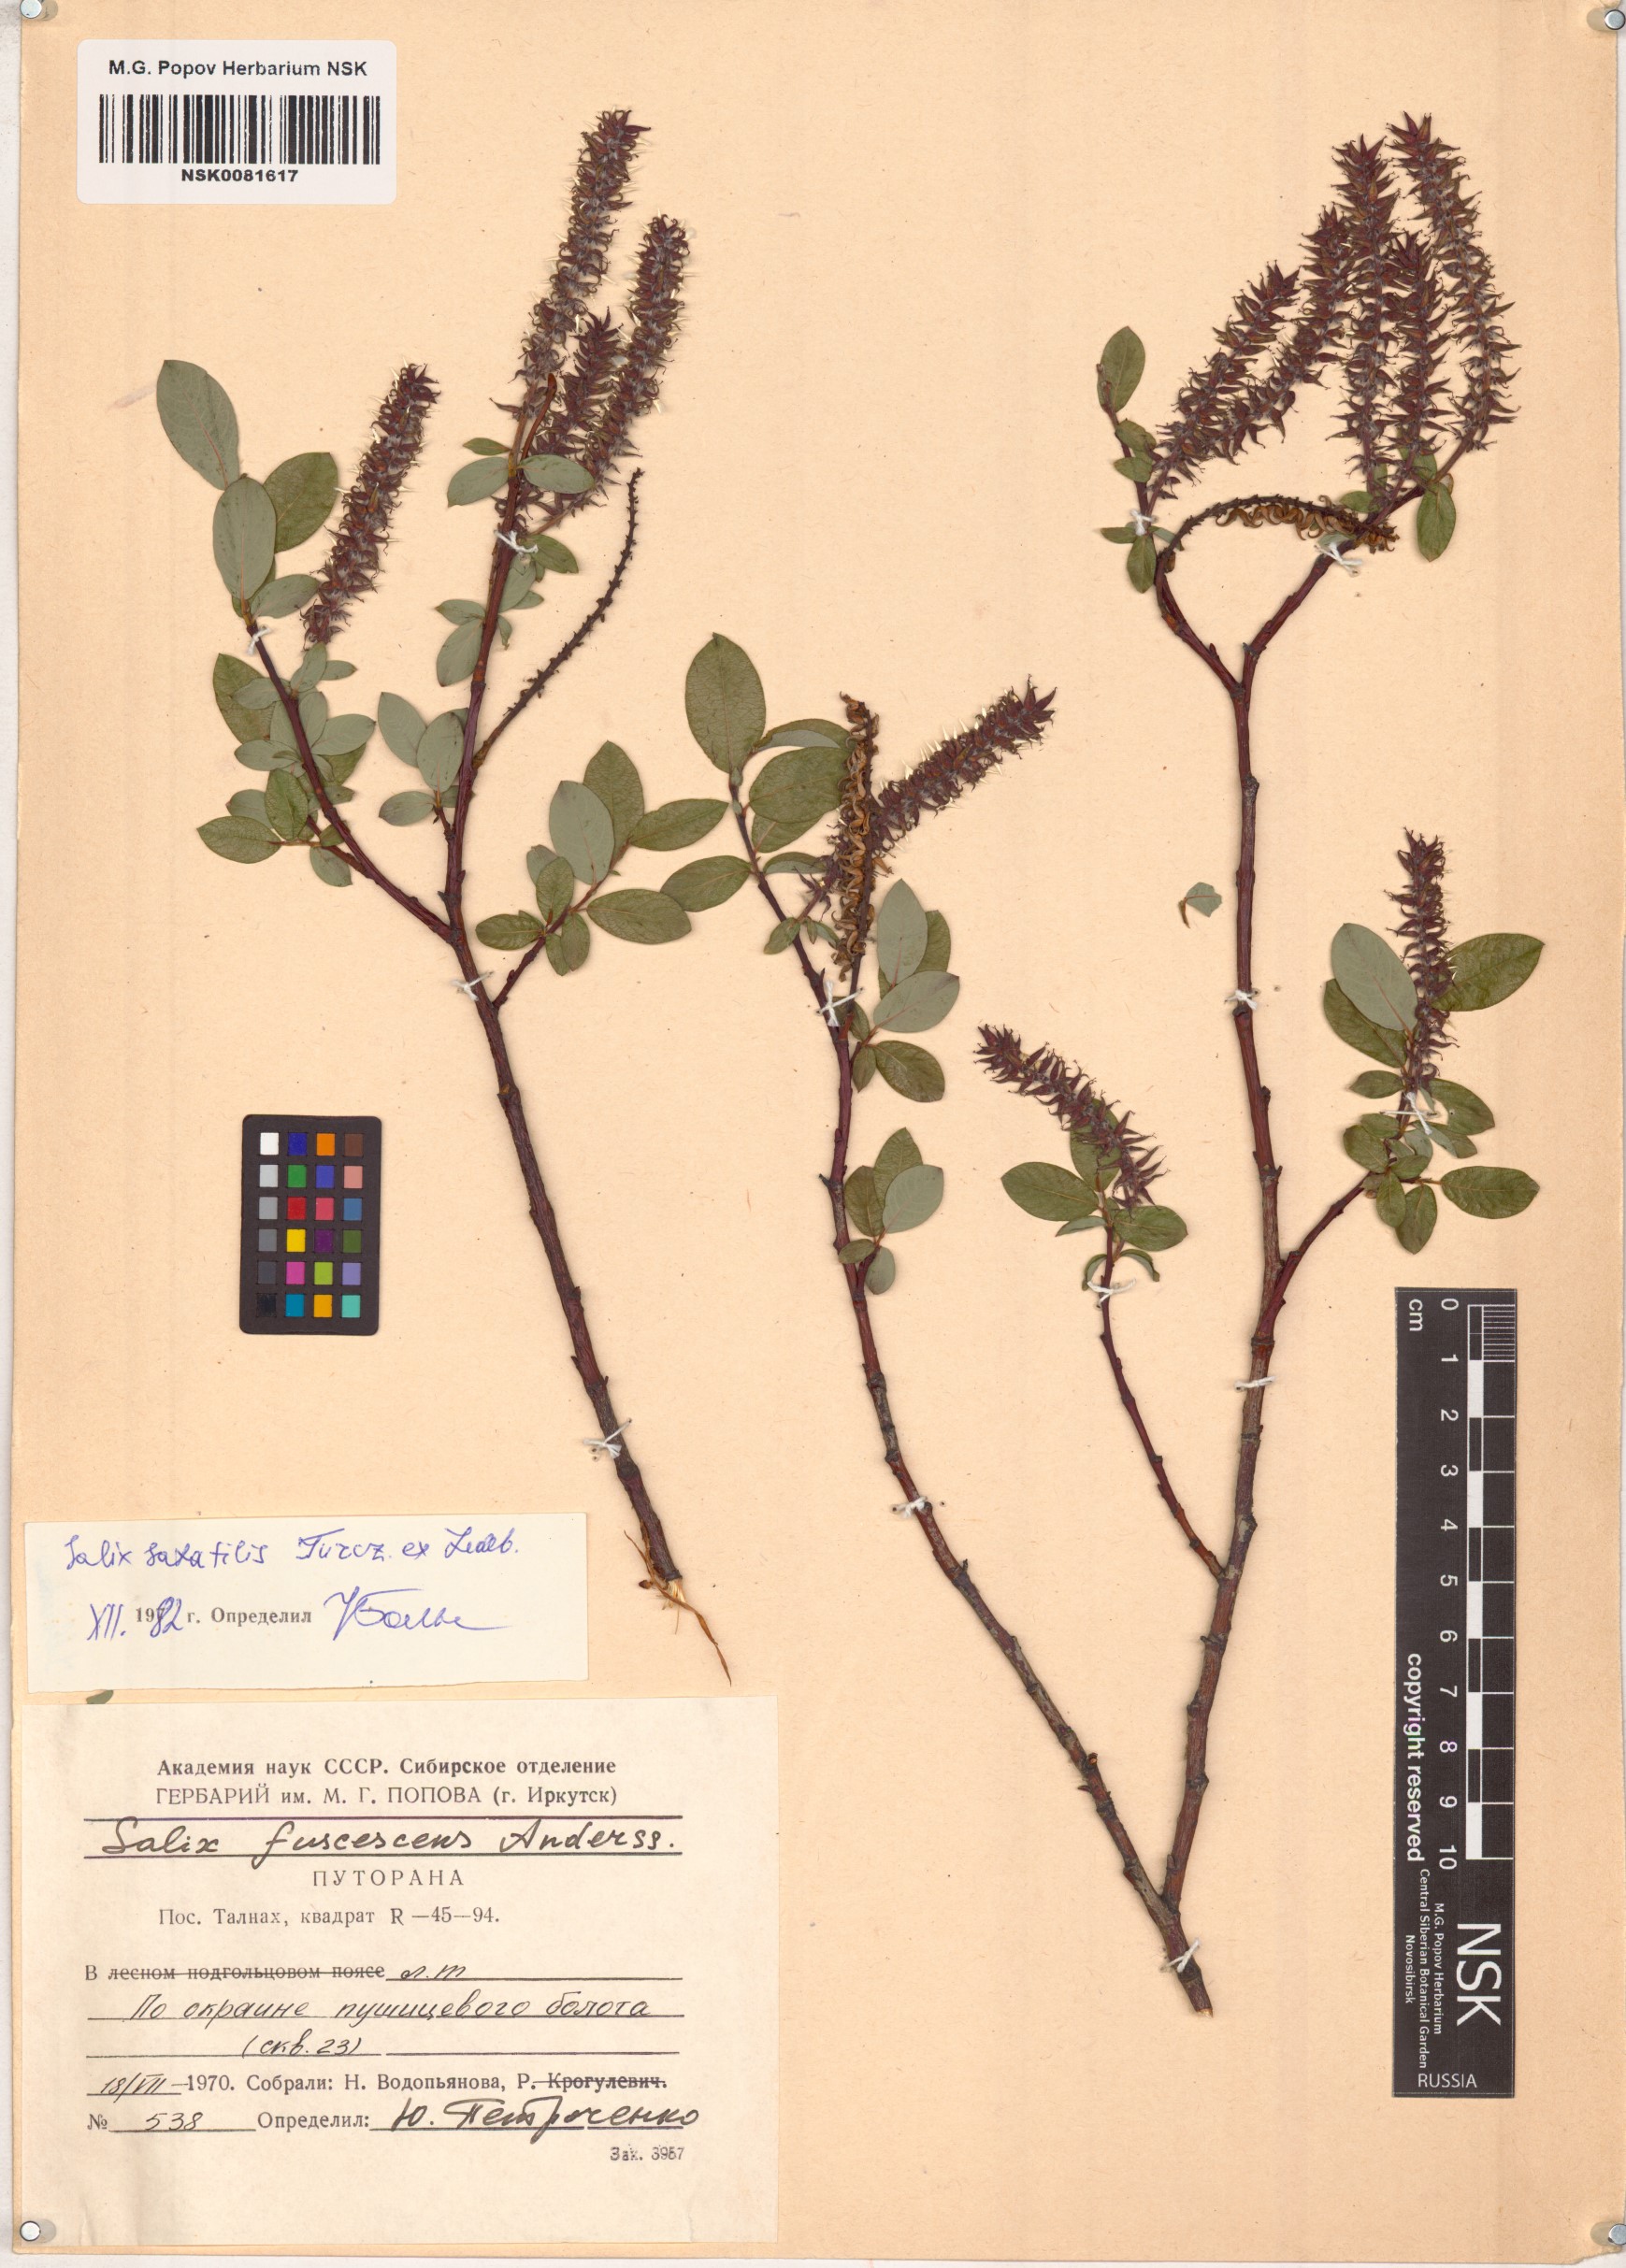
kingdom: Plantae
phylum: Tracheophyta
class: Magnoliopsida
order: Malpighiales
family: Salicaceae
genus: Salix
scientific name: Salix saxatilis
